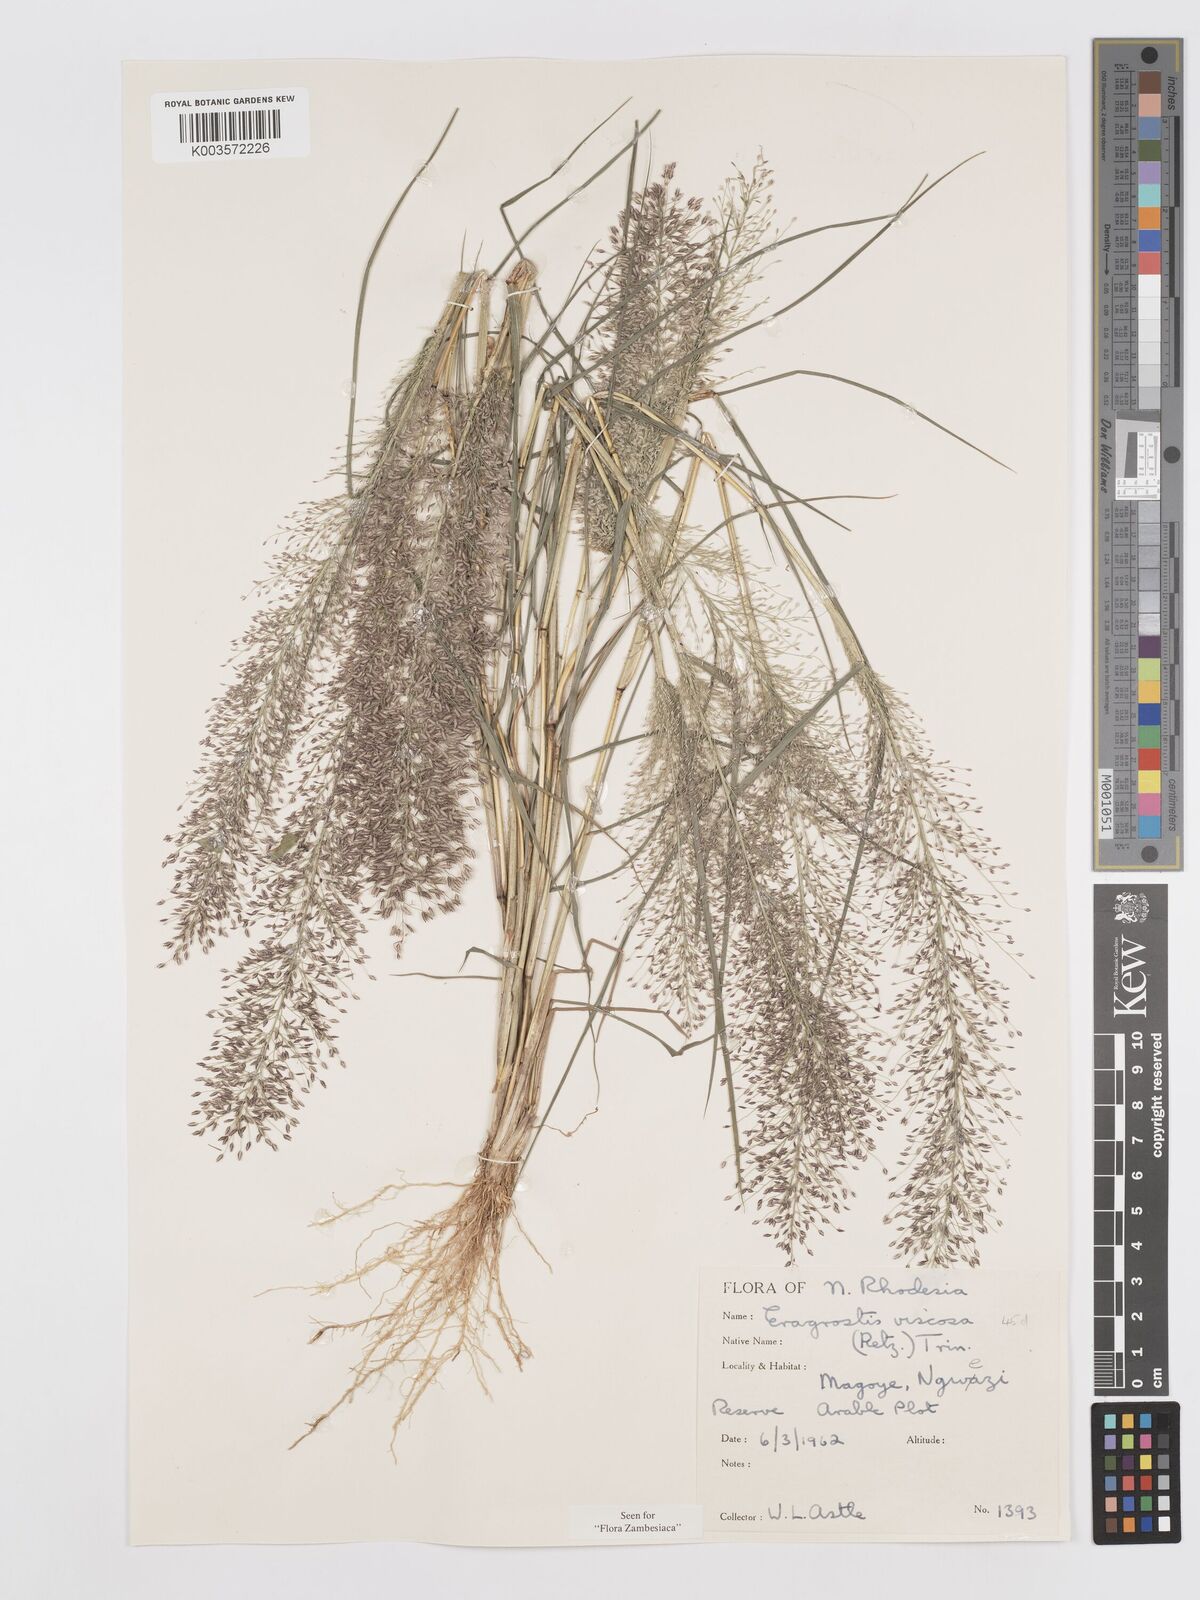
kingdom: Plantae
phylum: Tracheophyta
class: Liliopsida
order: Poales
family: Poaceae
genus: Eragrostis
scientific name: Eragrostis
